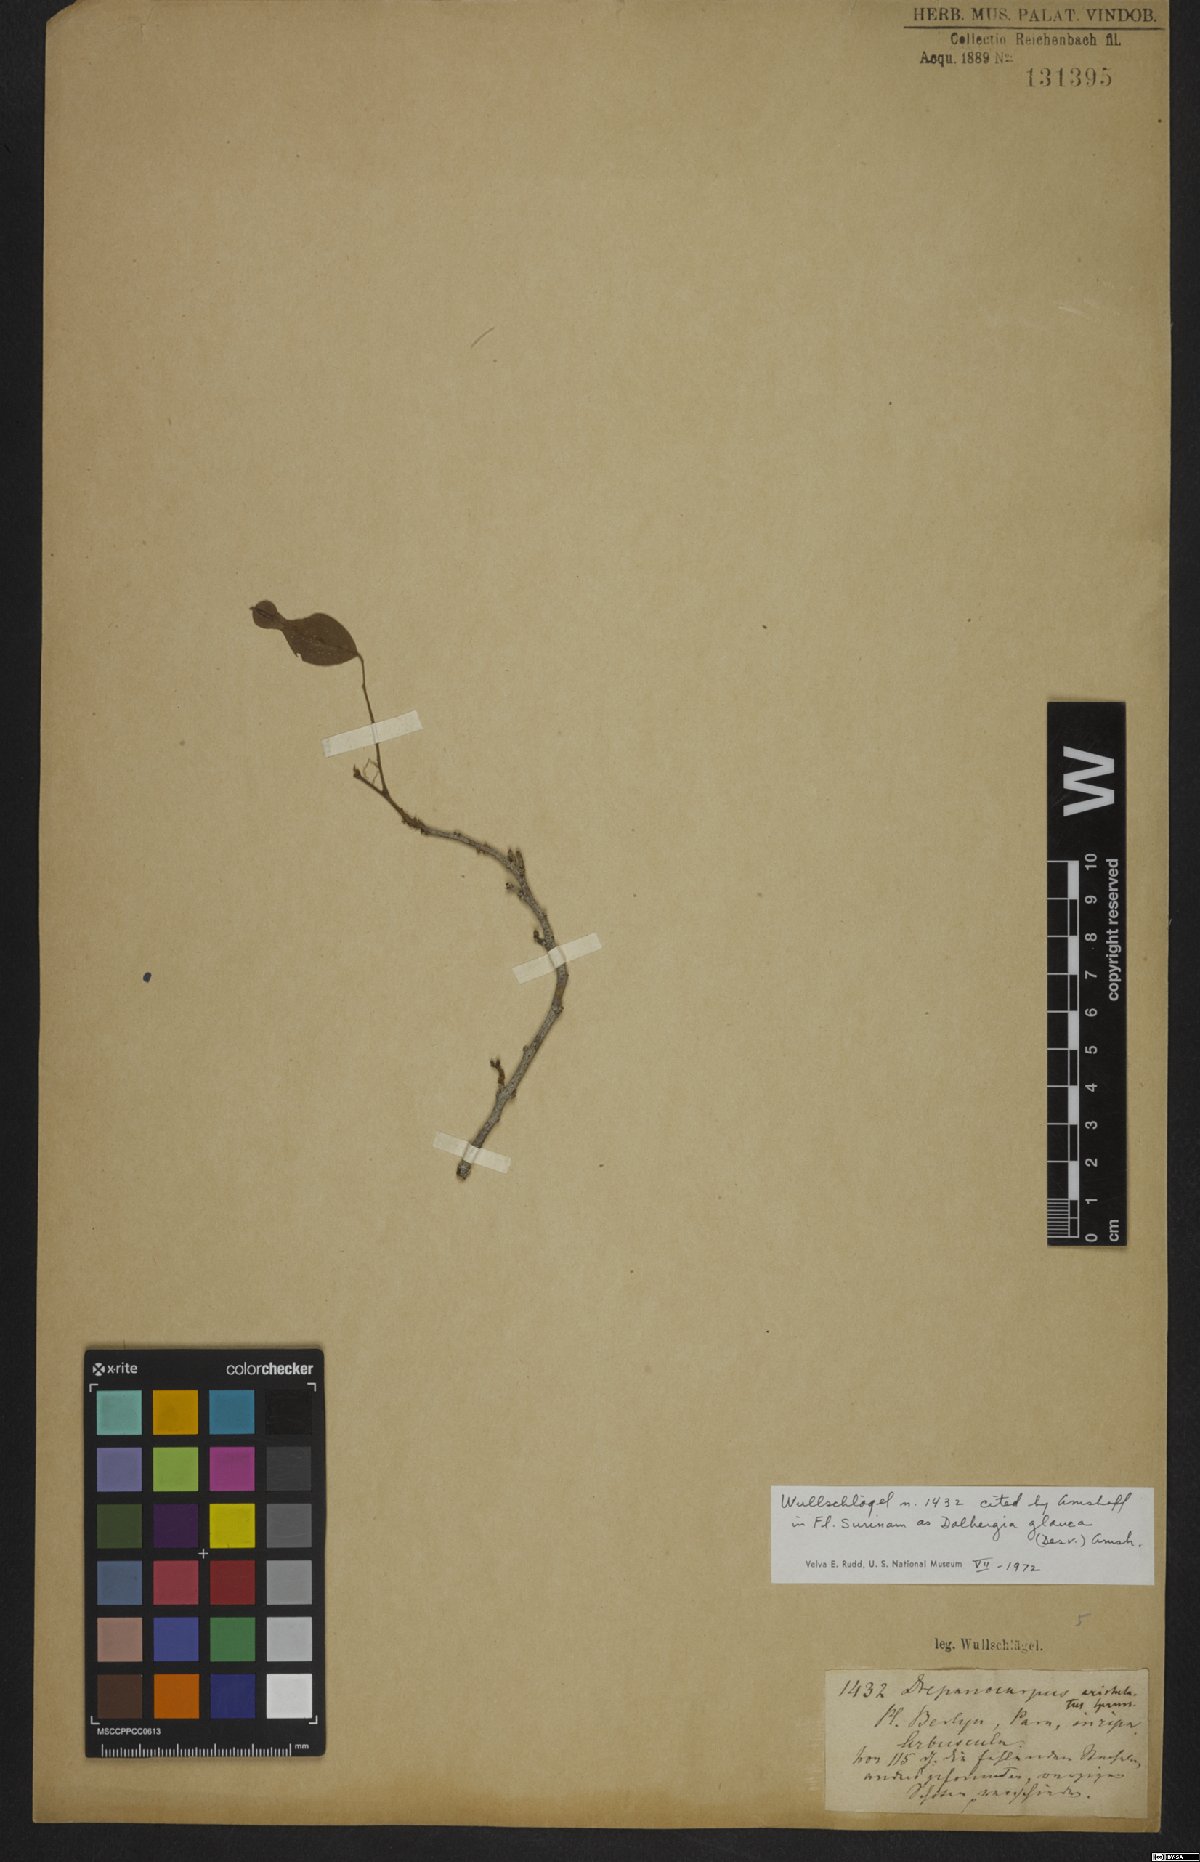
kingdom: Plantae
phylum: Tracheophyta
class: Magnoliopsida
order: Fabales
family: Fabaceae
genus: Dalbergia
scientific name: Dalbergia atropurpurea
